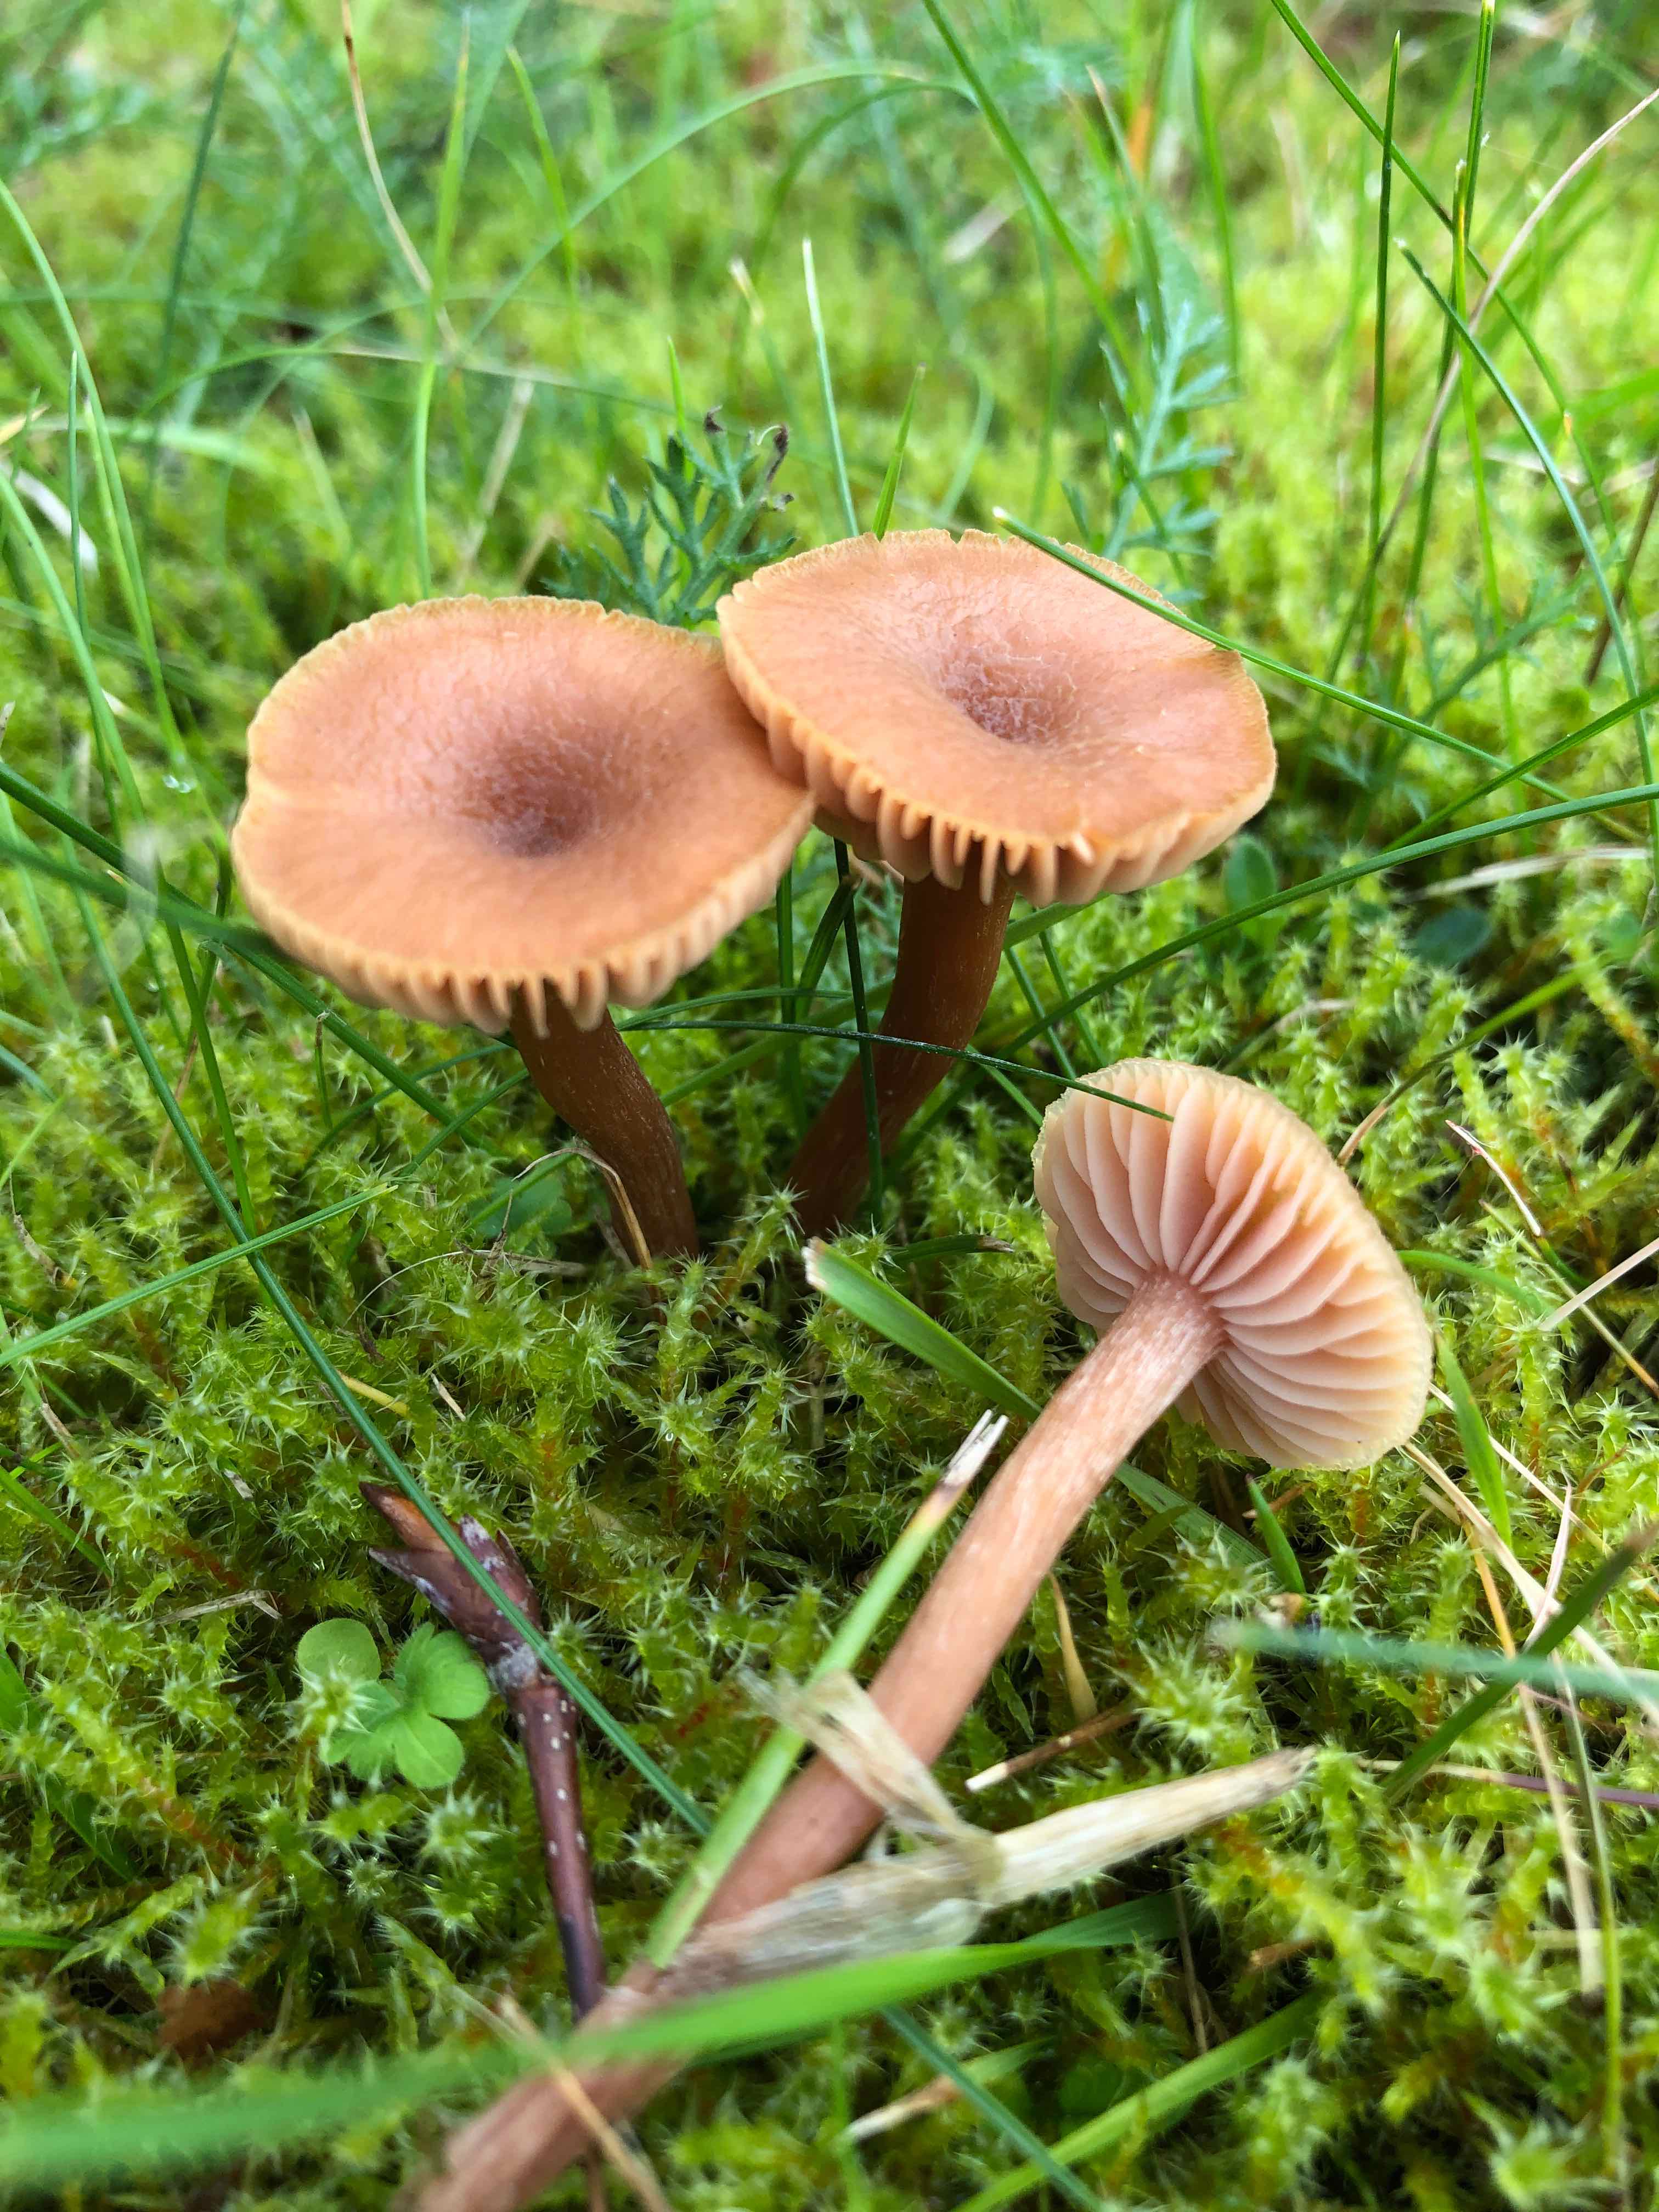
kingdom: Fungi
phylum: Basidiomycota
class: Agaricomycetes
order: Agaricales
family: Hydnangiaceae
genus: Laccaria
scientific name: Laccaria laccata
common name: rød ametysthat
